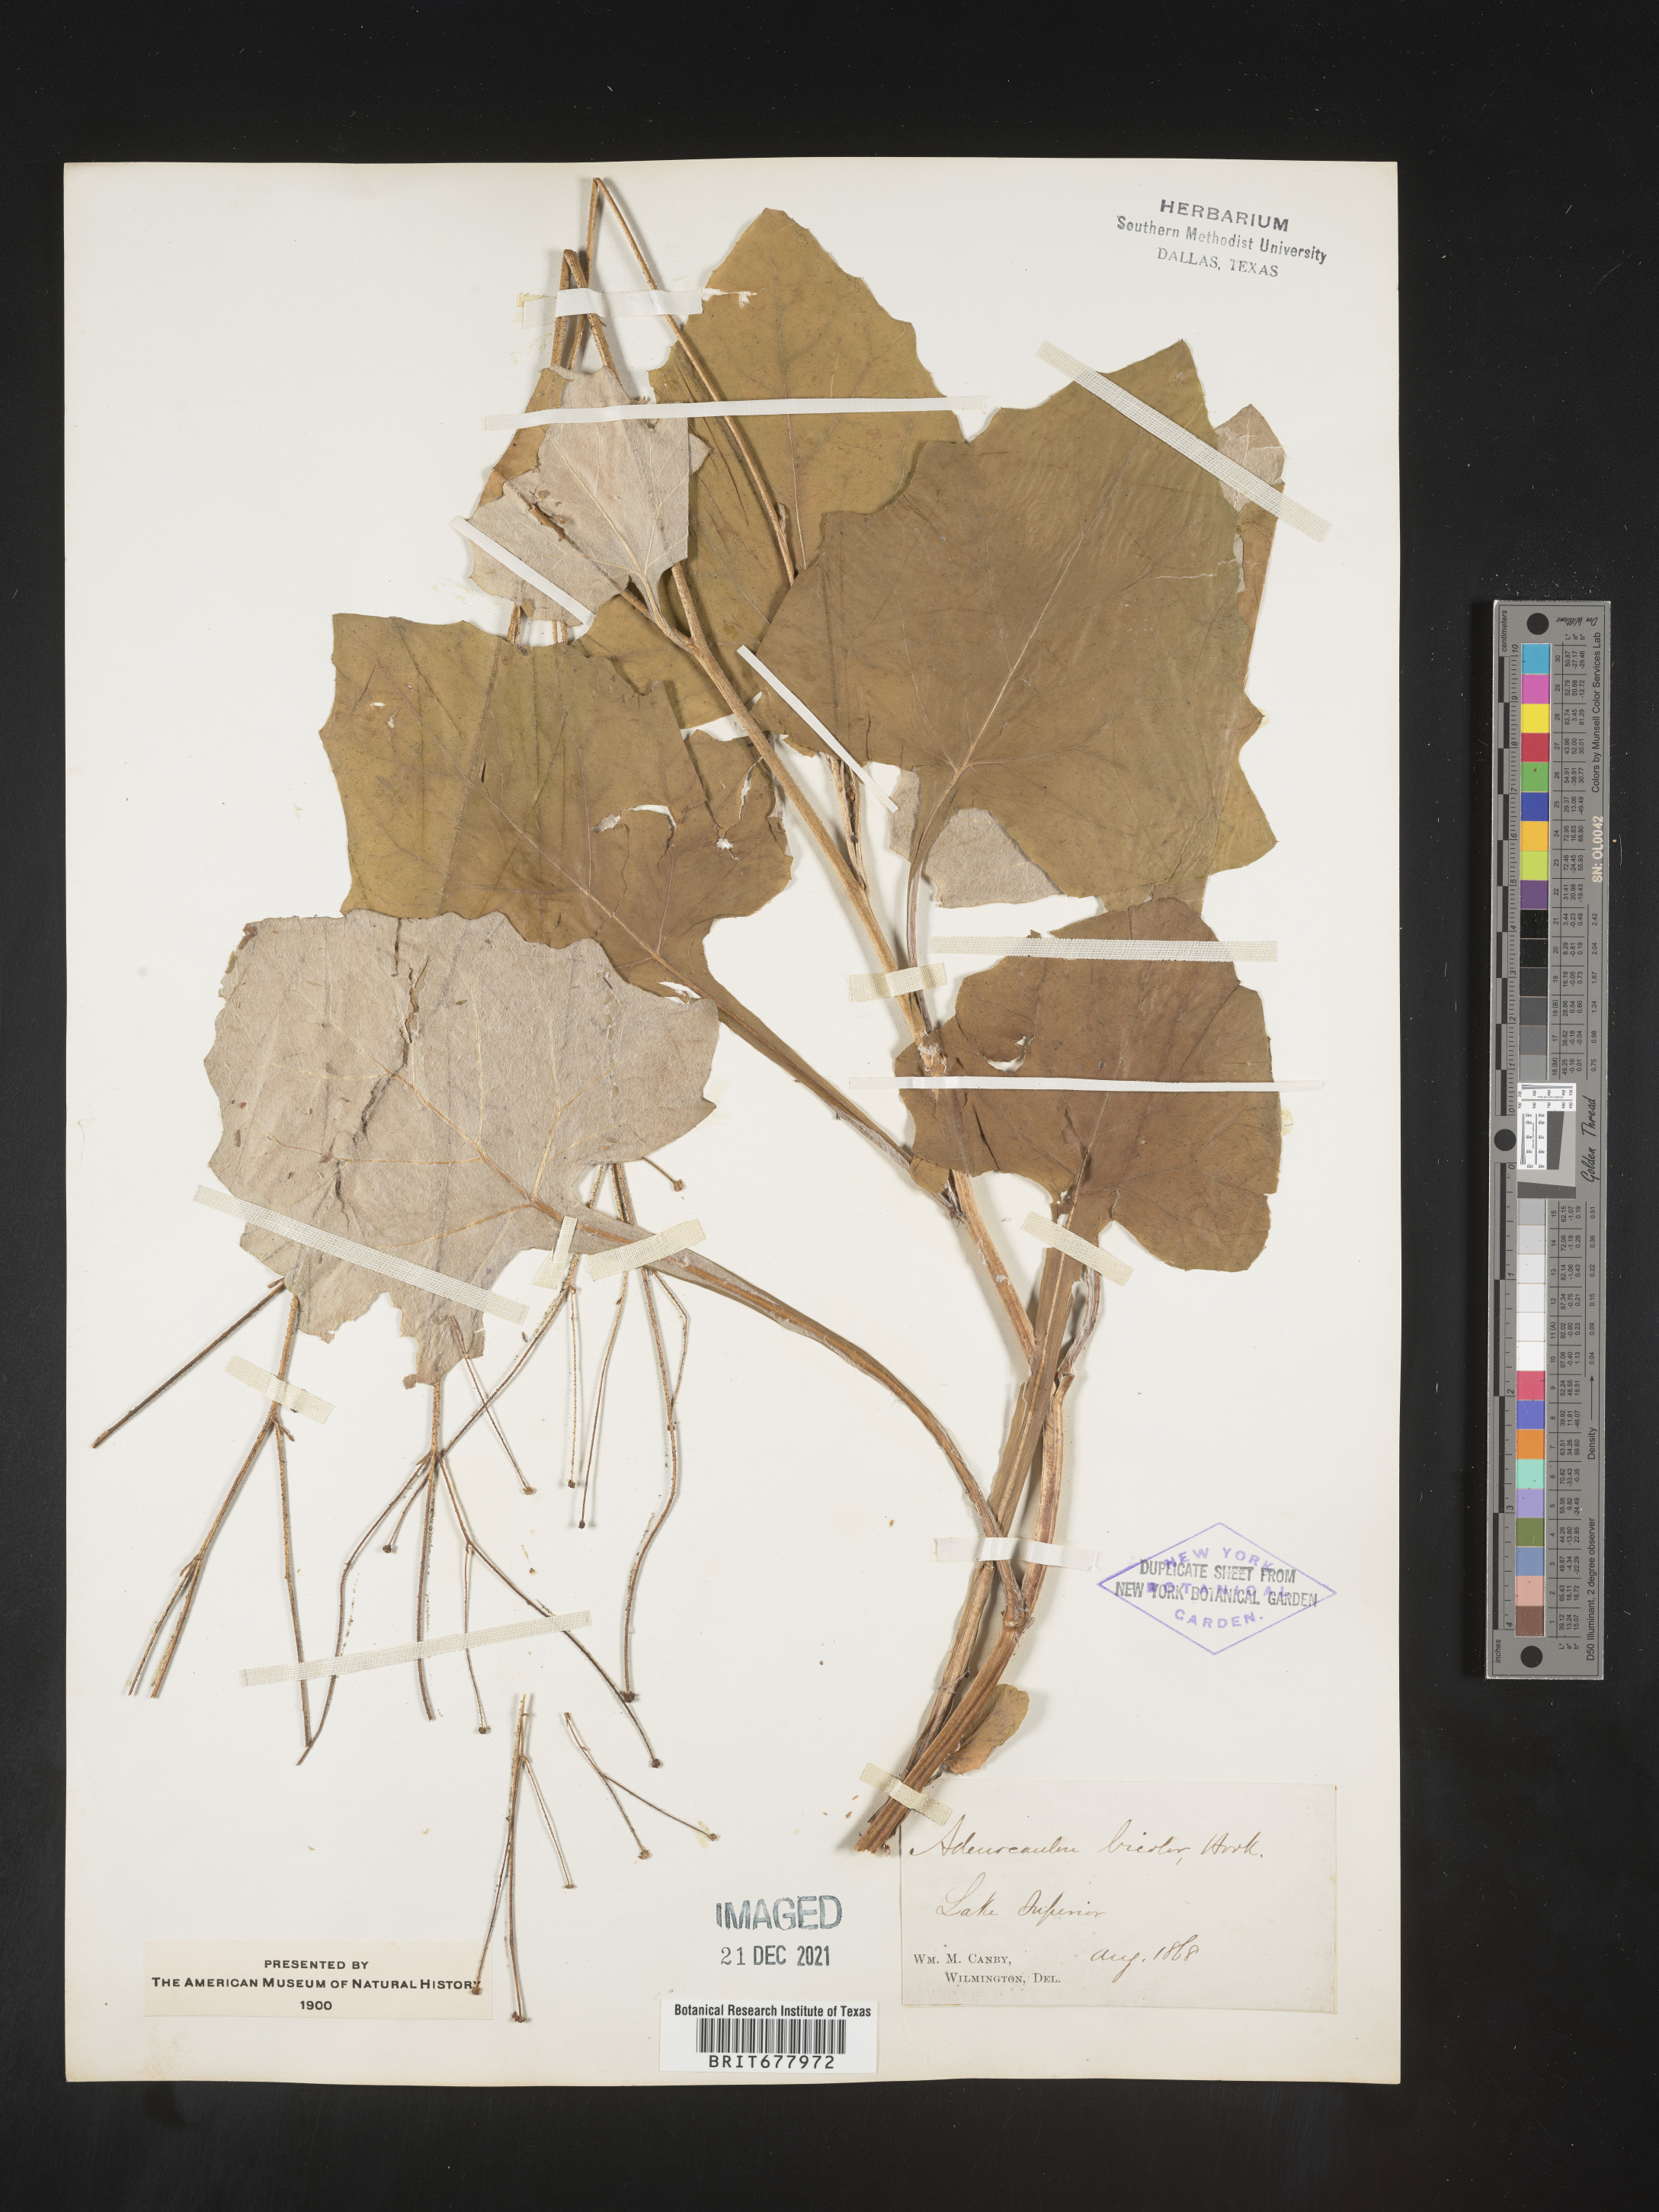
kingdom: Plantae
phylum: Tracheophyta
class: Magnoliopsida
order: Asterales
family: Asteraceae
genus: Adenocaulon
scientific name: Adenocaulon
